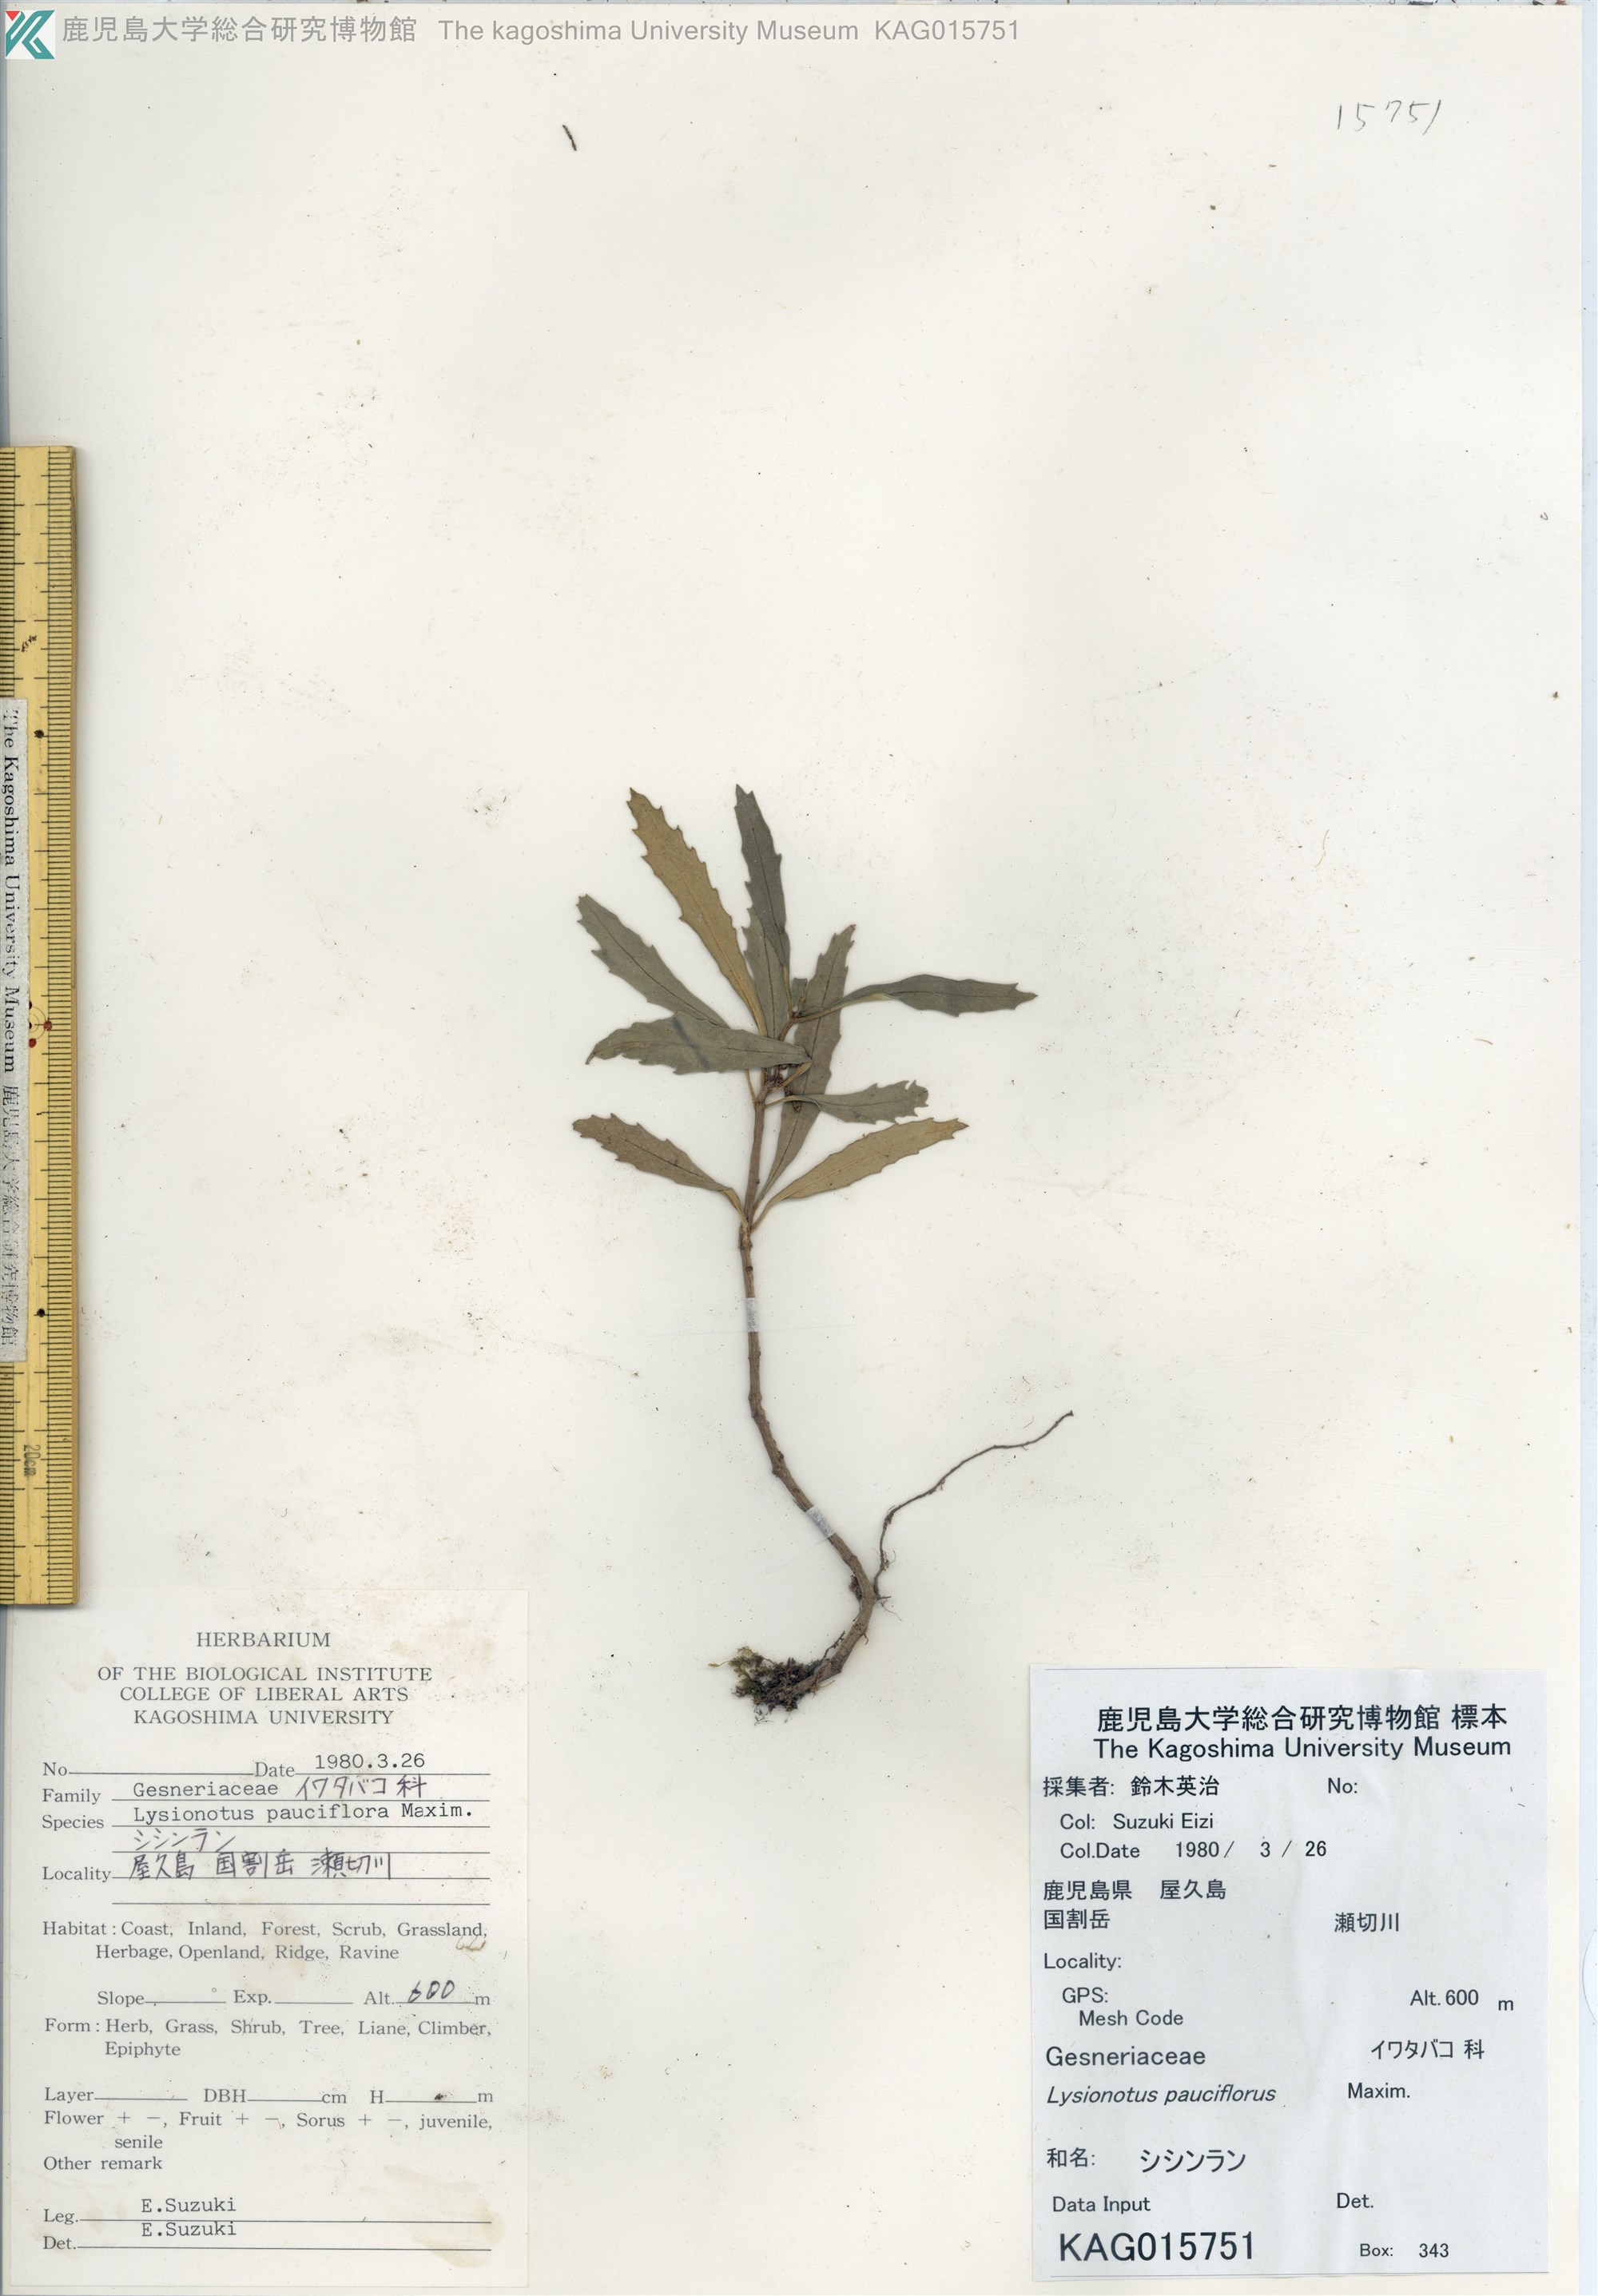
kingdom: Plantae
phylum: Tracheophyta
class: Magnoliopsida
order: Lamiales
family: Gesneriaceae
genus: Lysionotus
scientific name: Lysionotus pauciflorus
